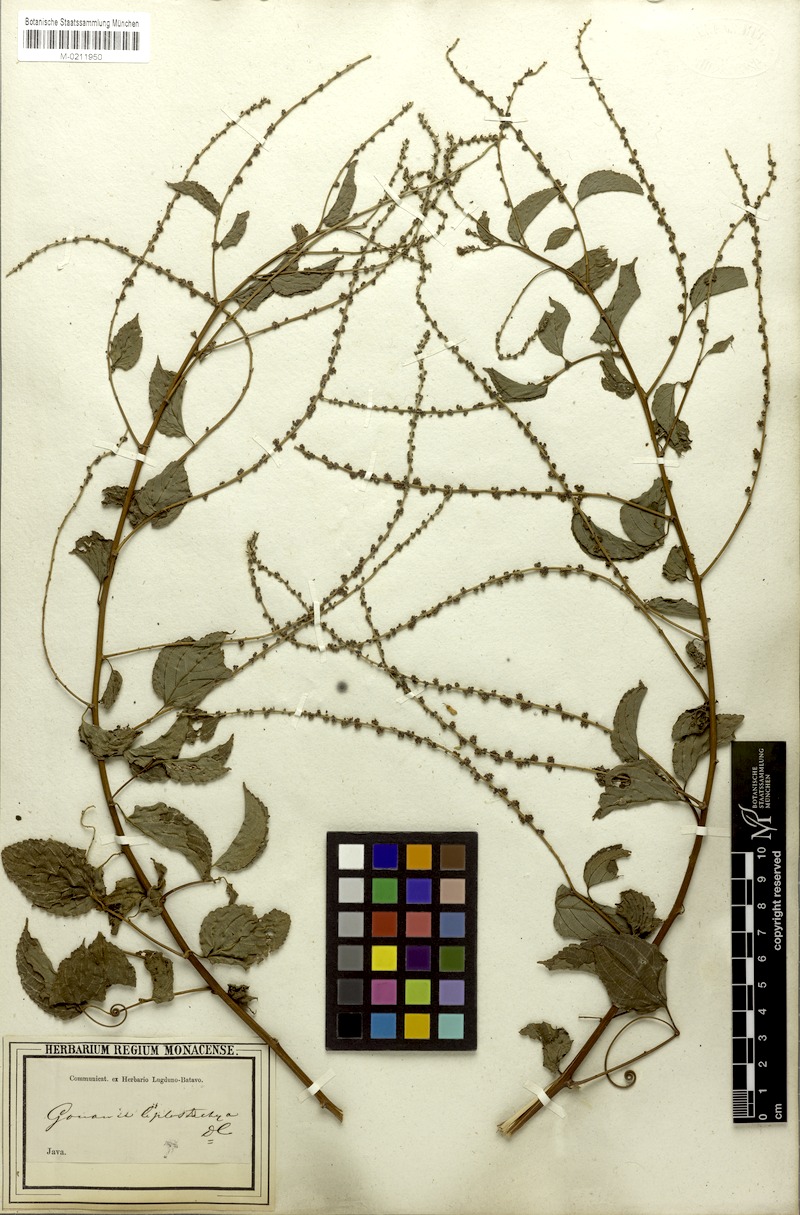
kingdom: Plantae
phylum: Tracheophyta
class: Magnoliopsida
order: Rosales
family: Rhamnaceae
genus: Gouania
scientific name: Gouania leptostachya
